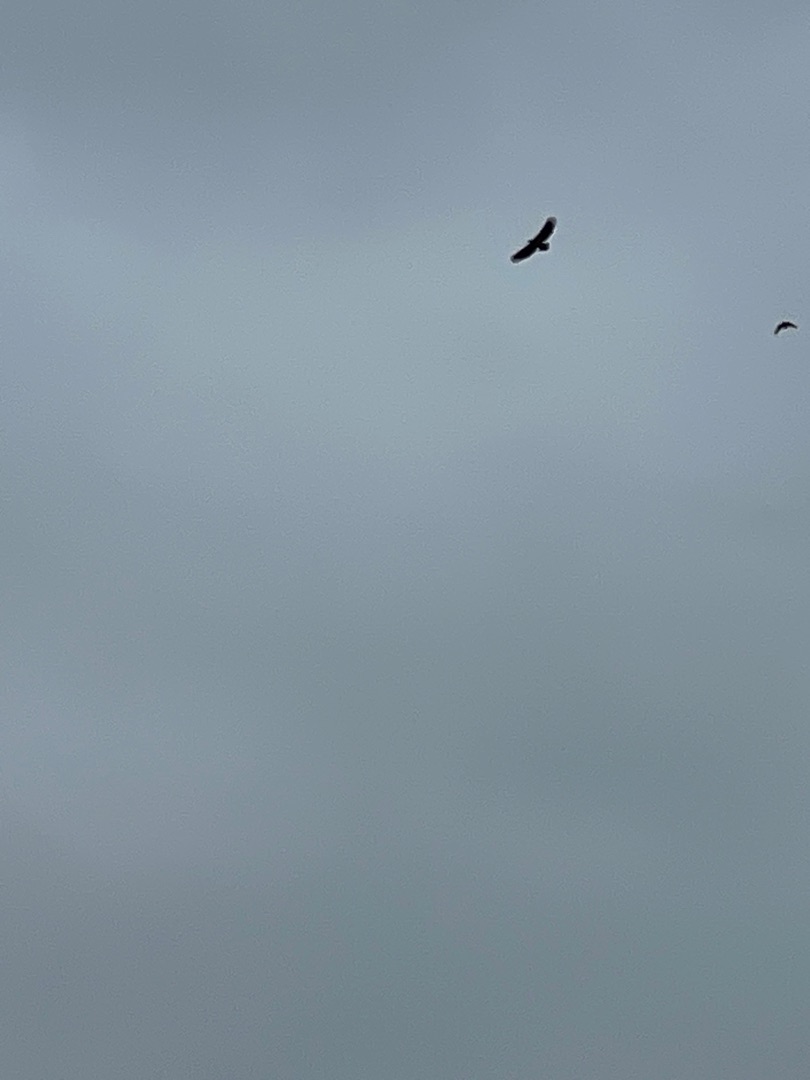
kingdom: Animalia
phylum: Chordata
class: Aves
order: Accipitriformes
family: Accipitridae
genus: Haliaeetus
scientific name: Haliaeetus albicilla
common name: Havørn
